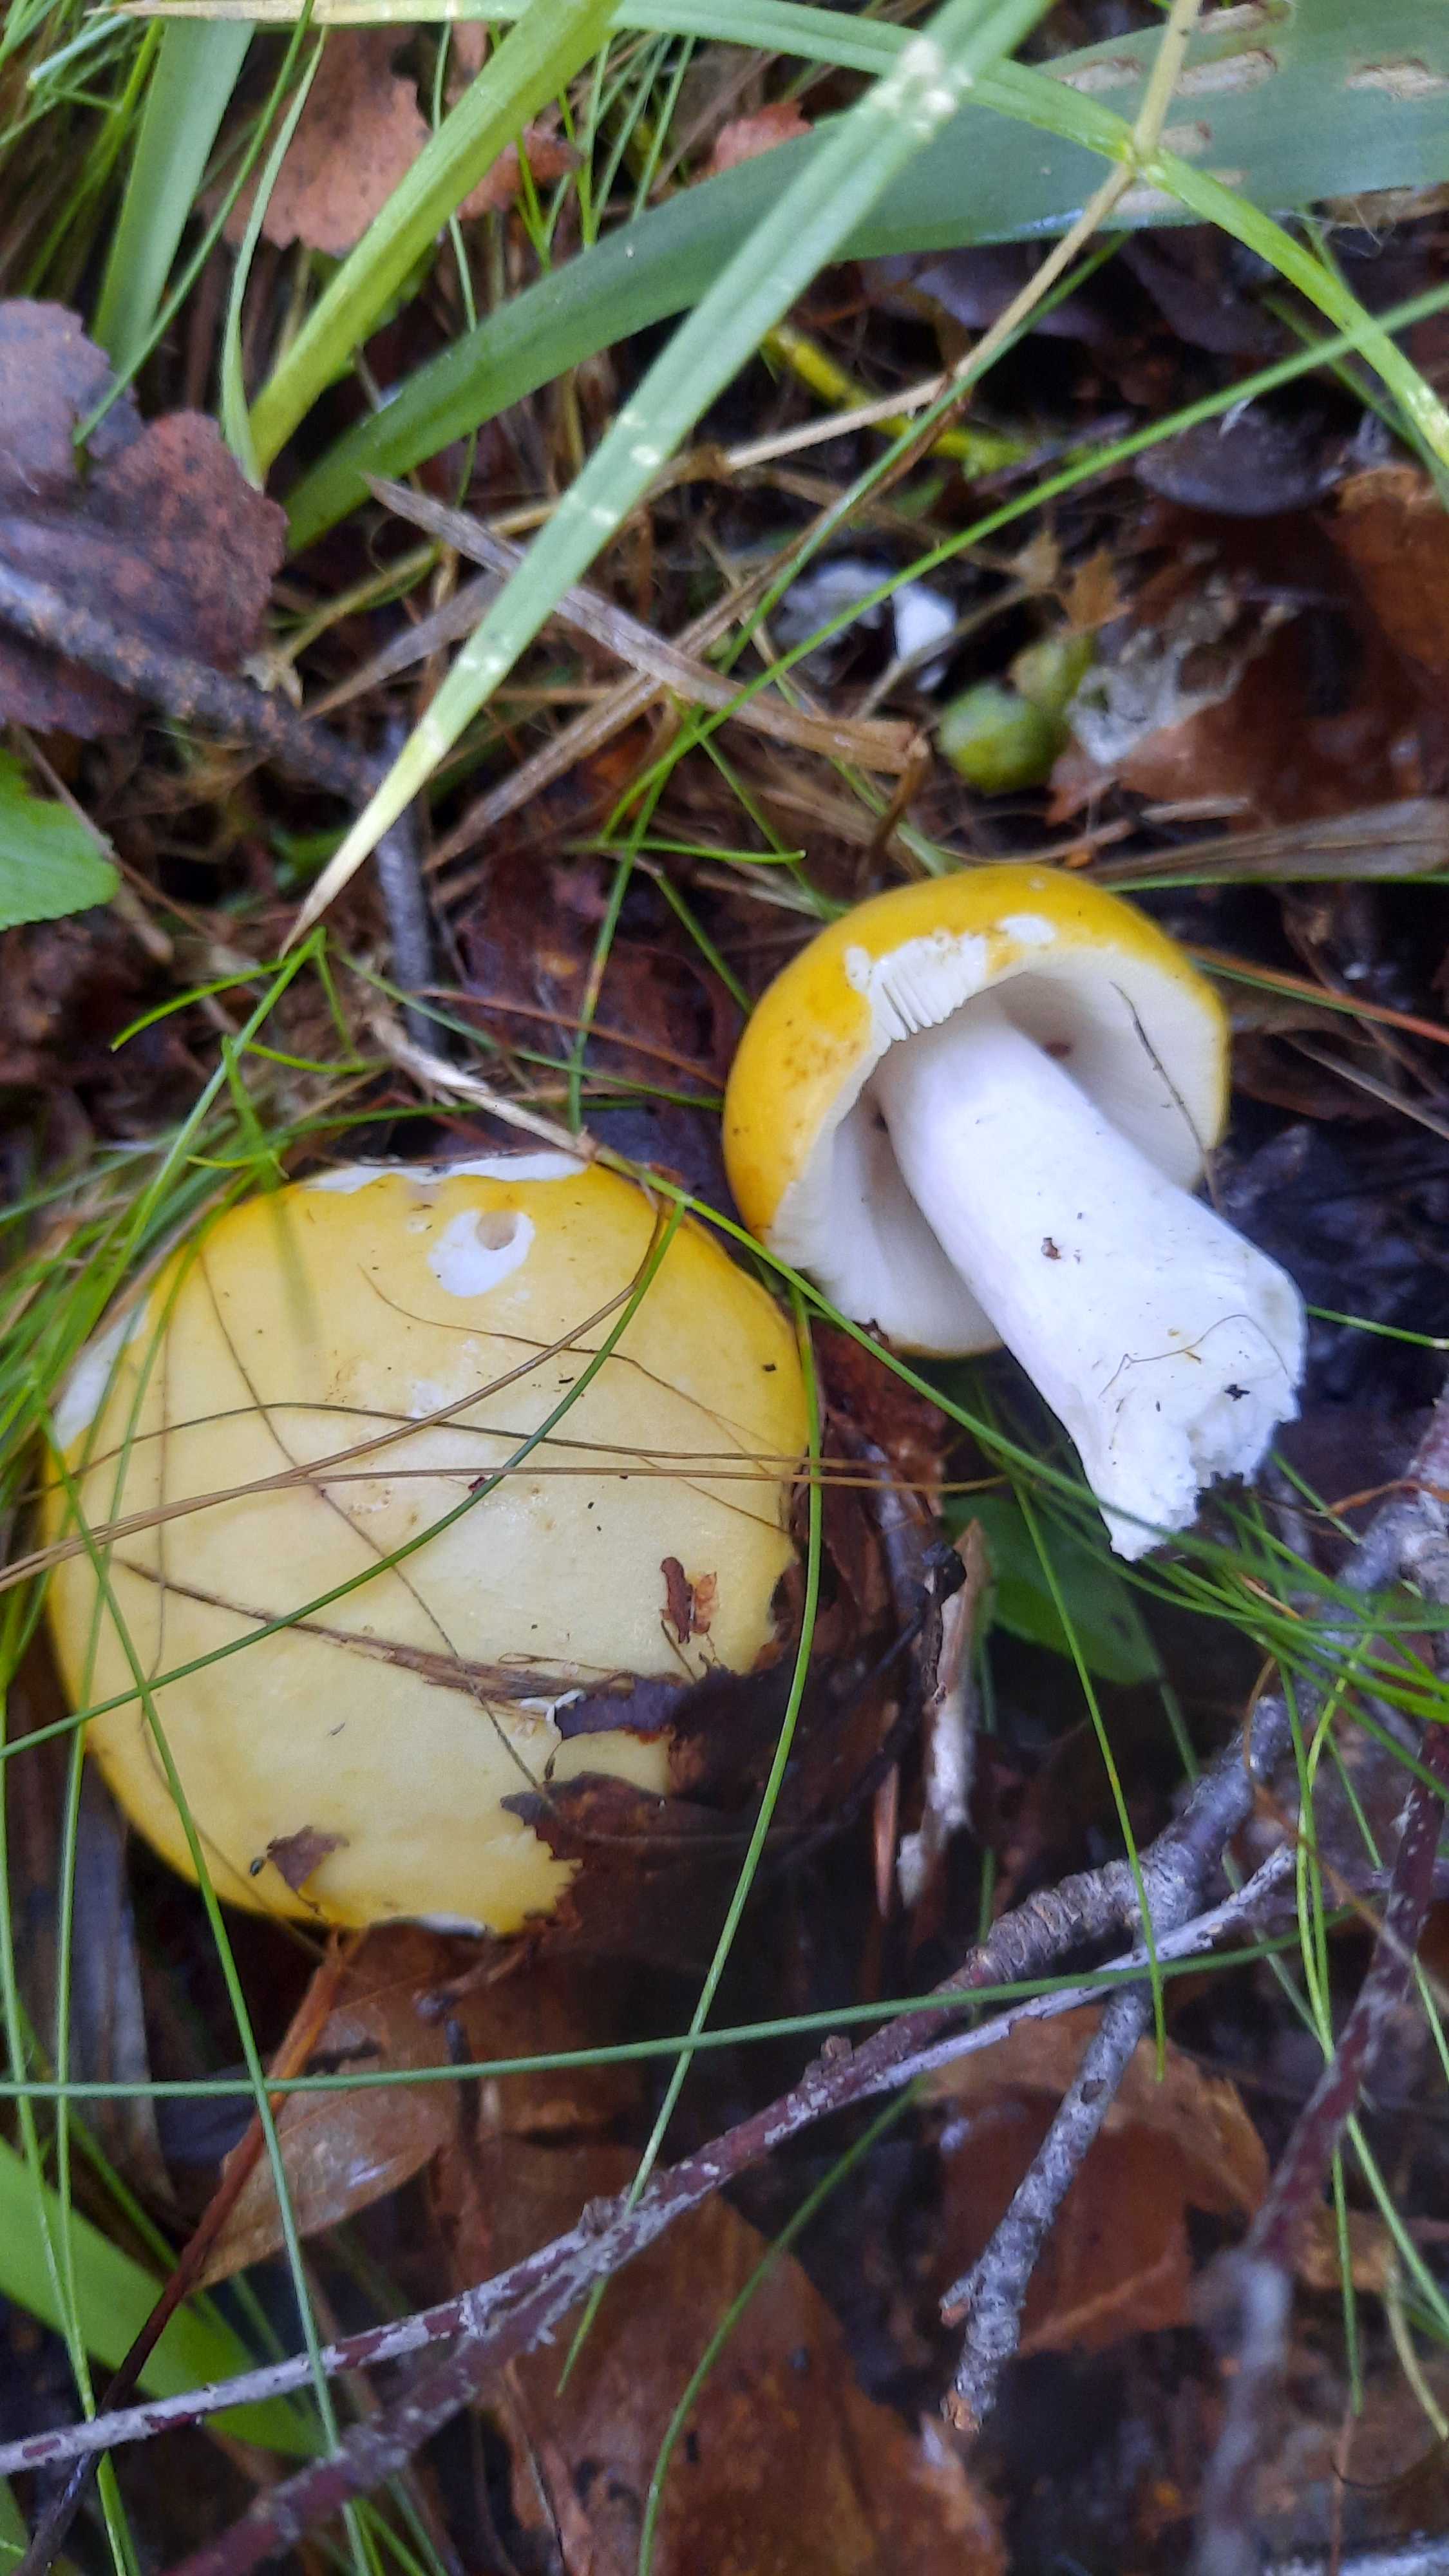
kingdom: Fungi
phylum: Basidiomycota
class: Agaricomycetes
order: Russulales
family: Russulaceae
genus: Russula
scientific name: Russula claroflava
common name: birke-skørhat
